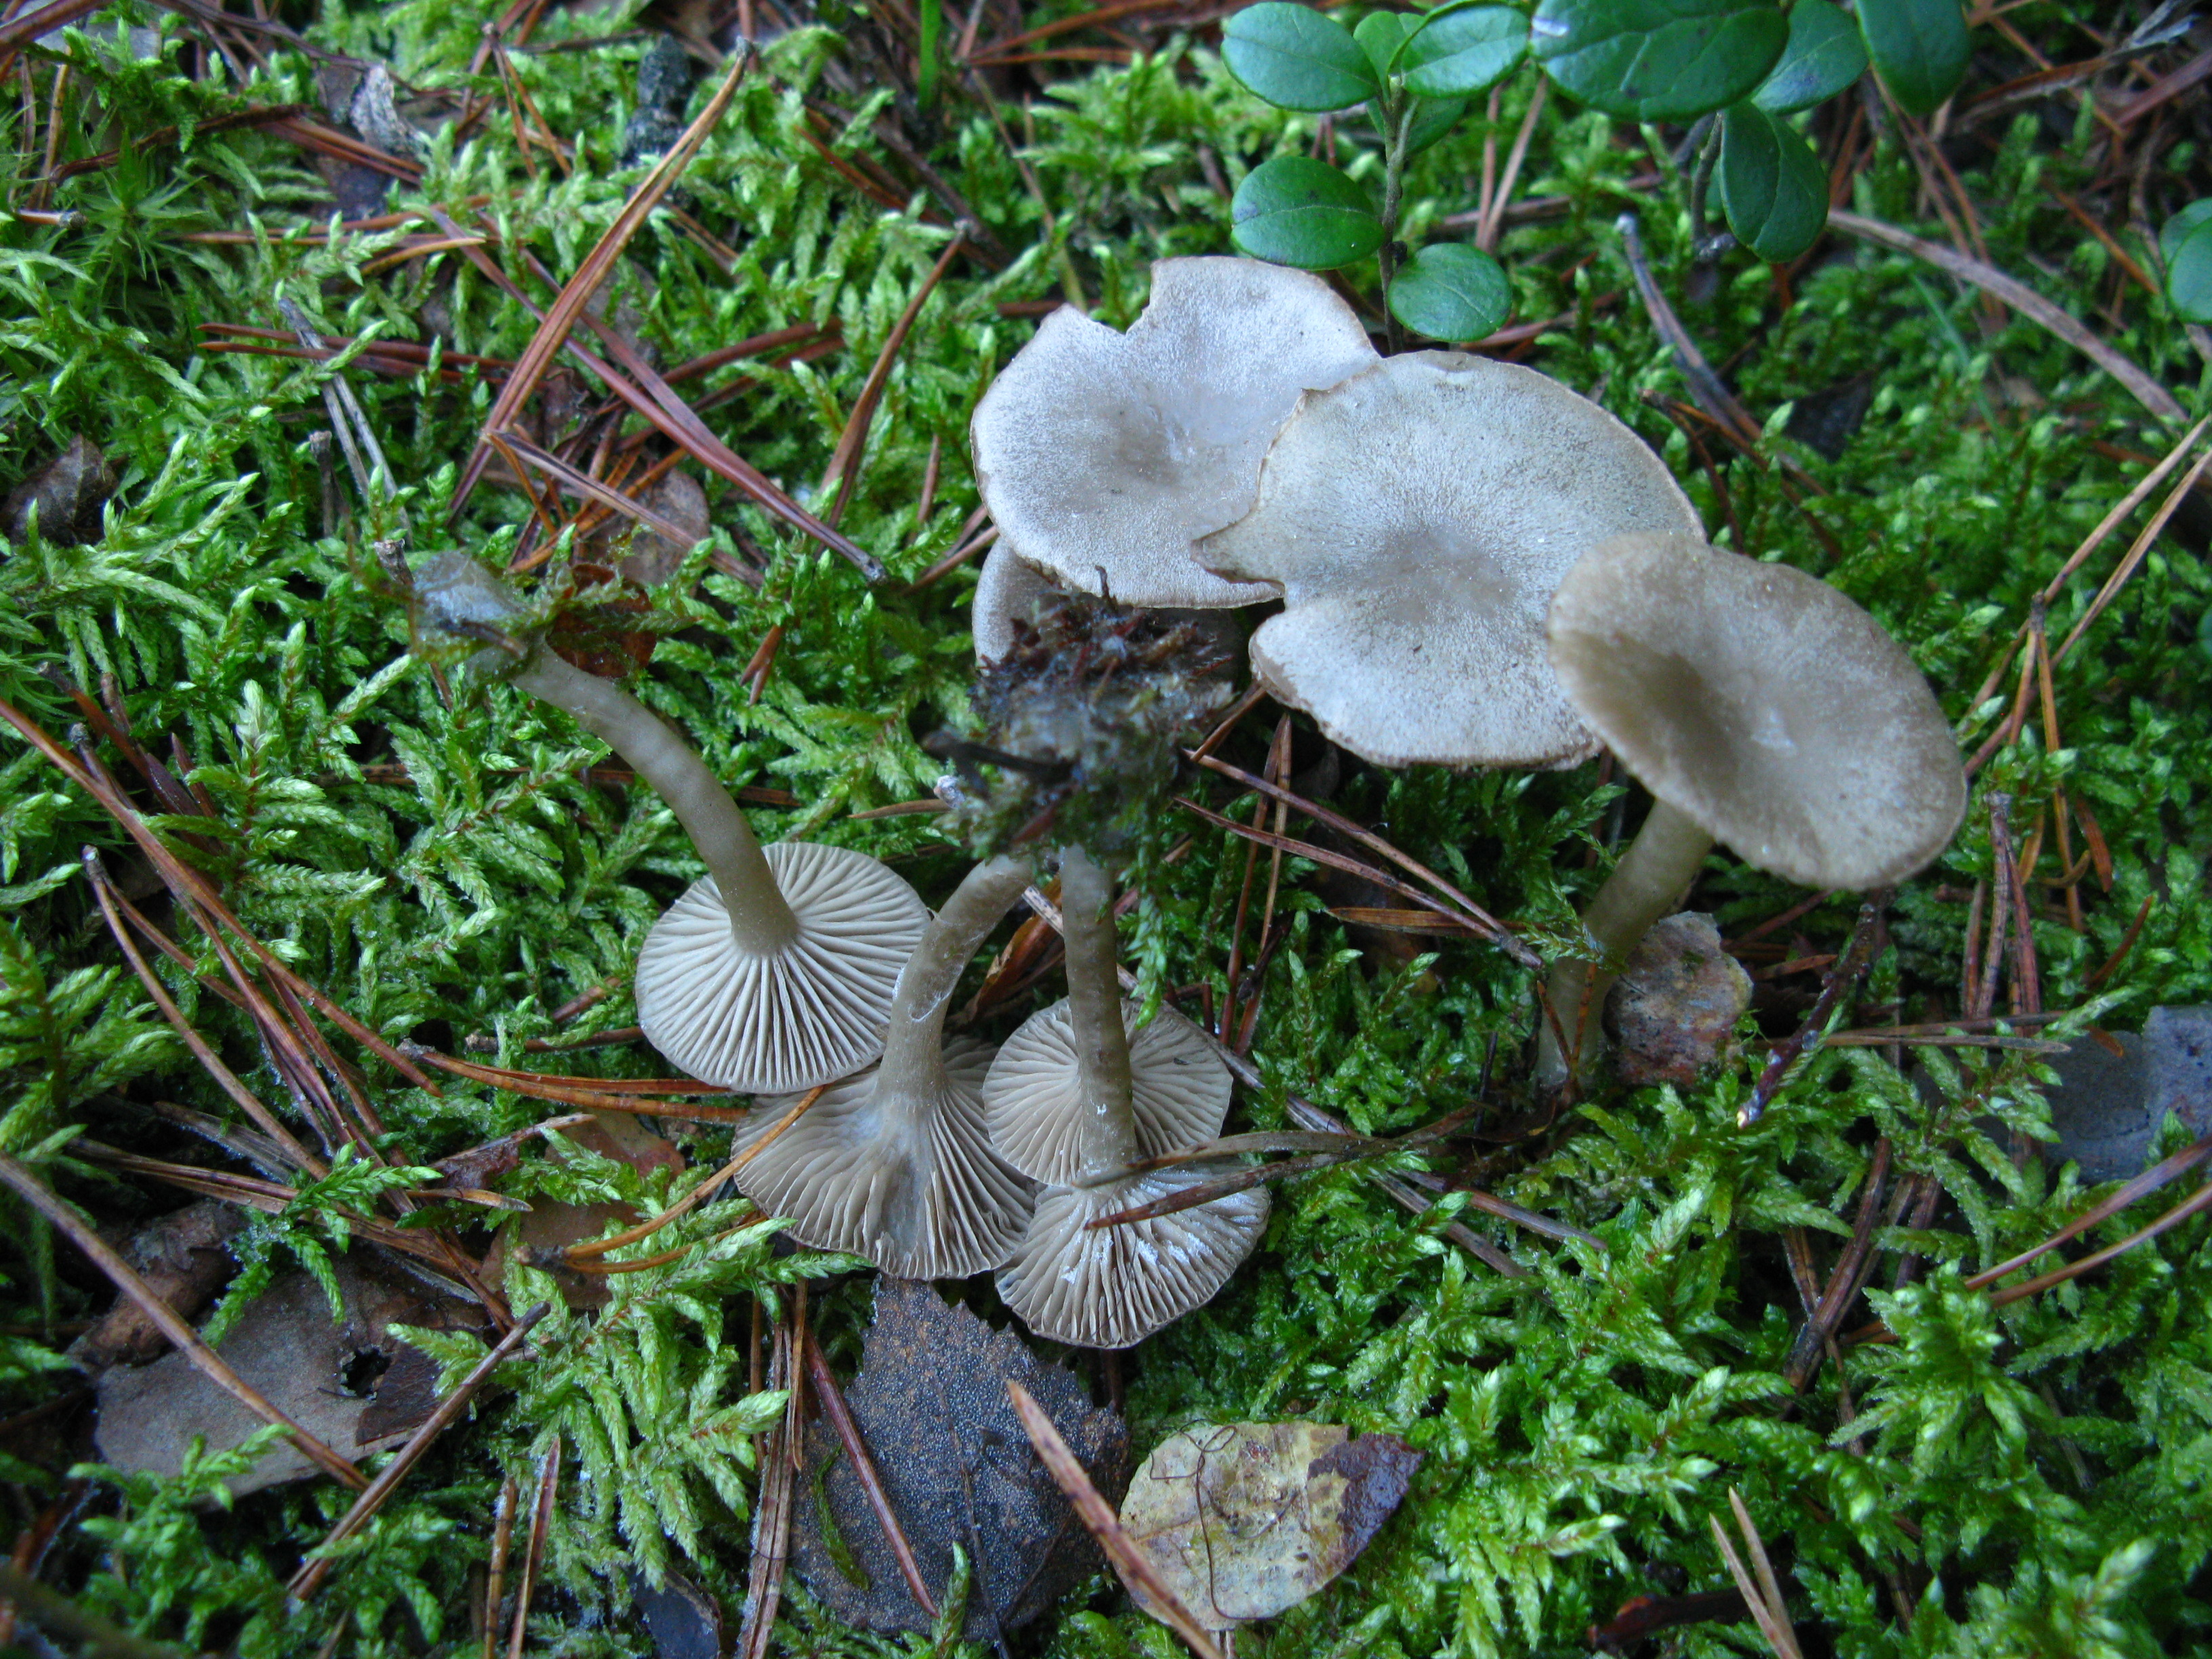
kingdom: Fungi
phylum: Basidiomycota
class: Agaricomycetes
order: Agaricales
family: Tricholomataceae
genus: Clitocybe
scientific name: Clitocybe vibecina
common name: Mealy funnel
